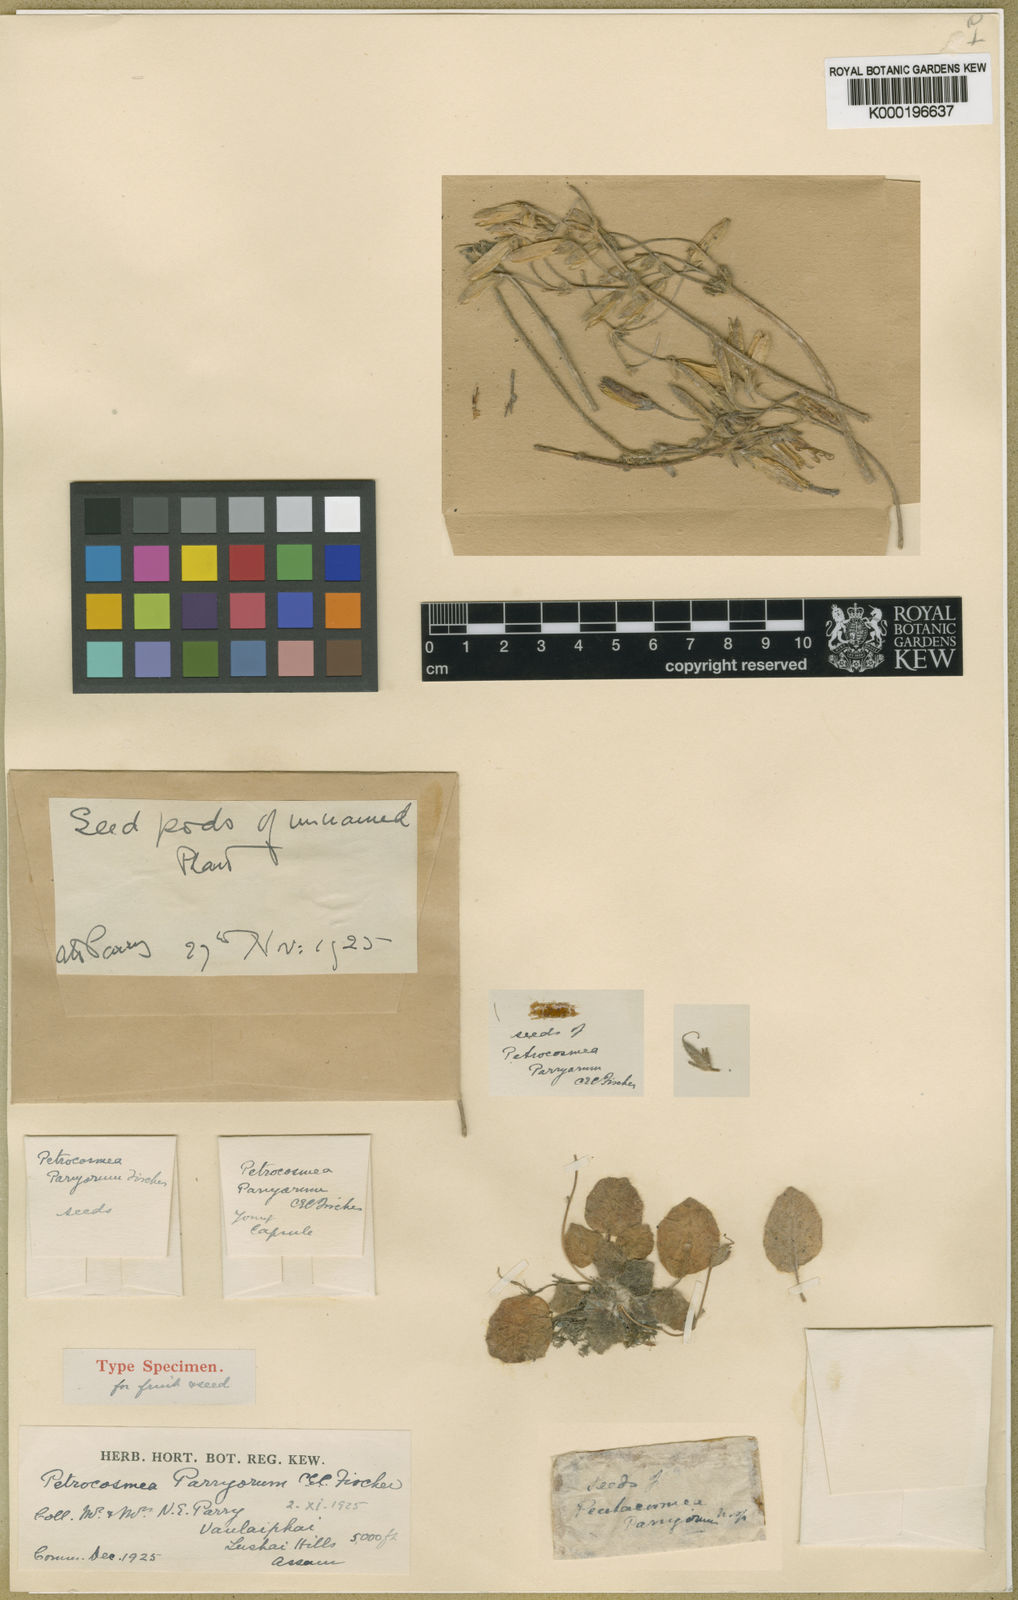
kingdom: Plantae
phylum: Tracheophyta
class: Magnoliopsida
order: Lamiales
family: Gesneriaceae
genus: Petrocosmea
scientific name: Petrocosmea parryorum
